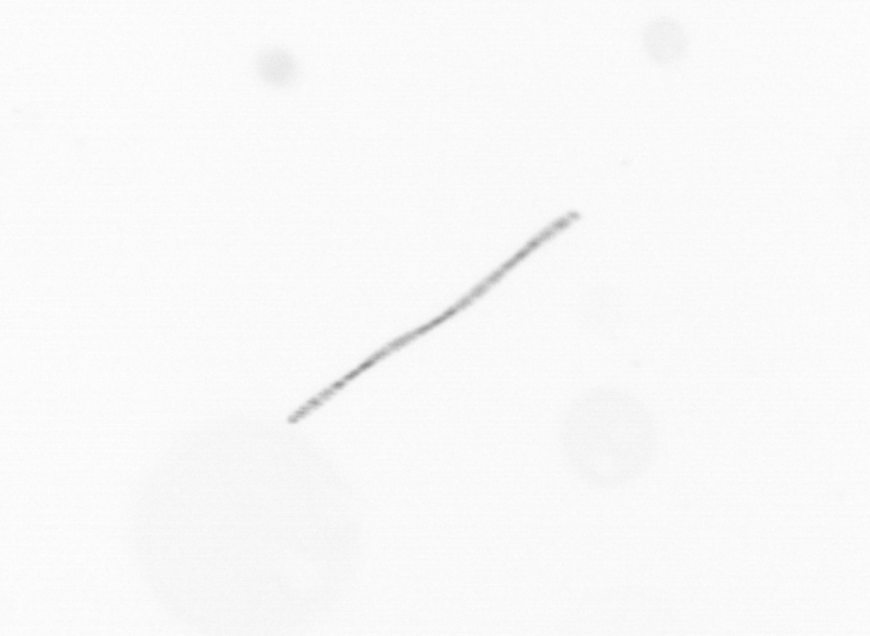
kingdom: Chromista
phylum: Ochrophyta
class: Bacillariophyceae
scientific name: Bacillariophyceae
